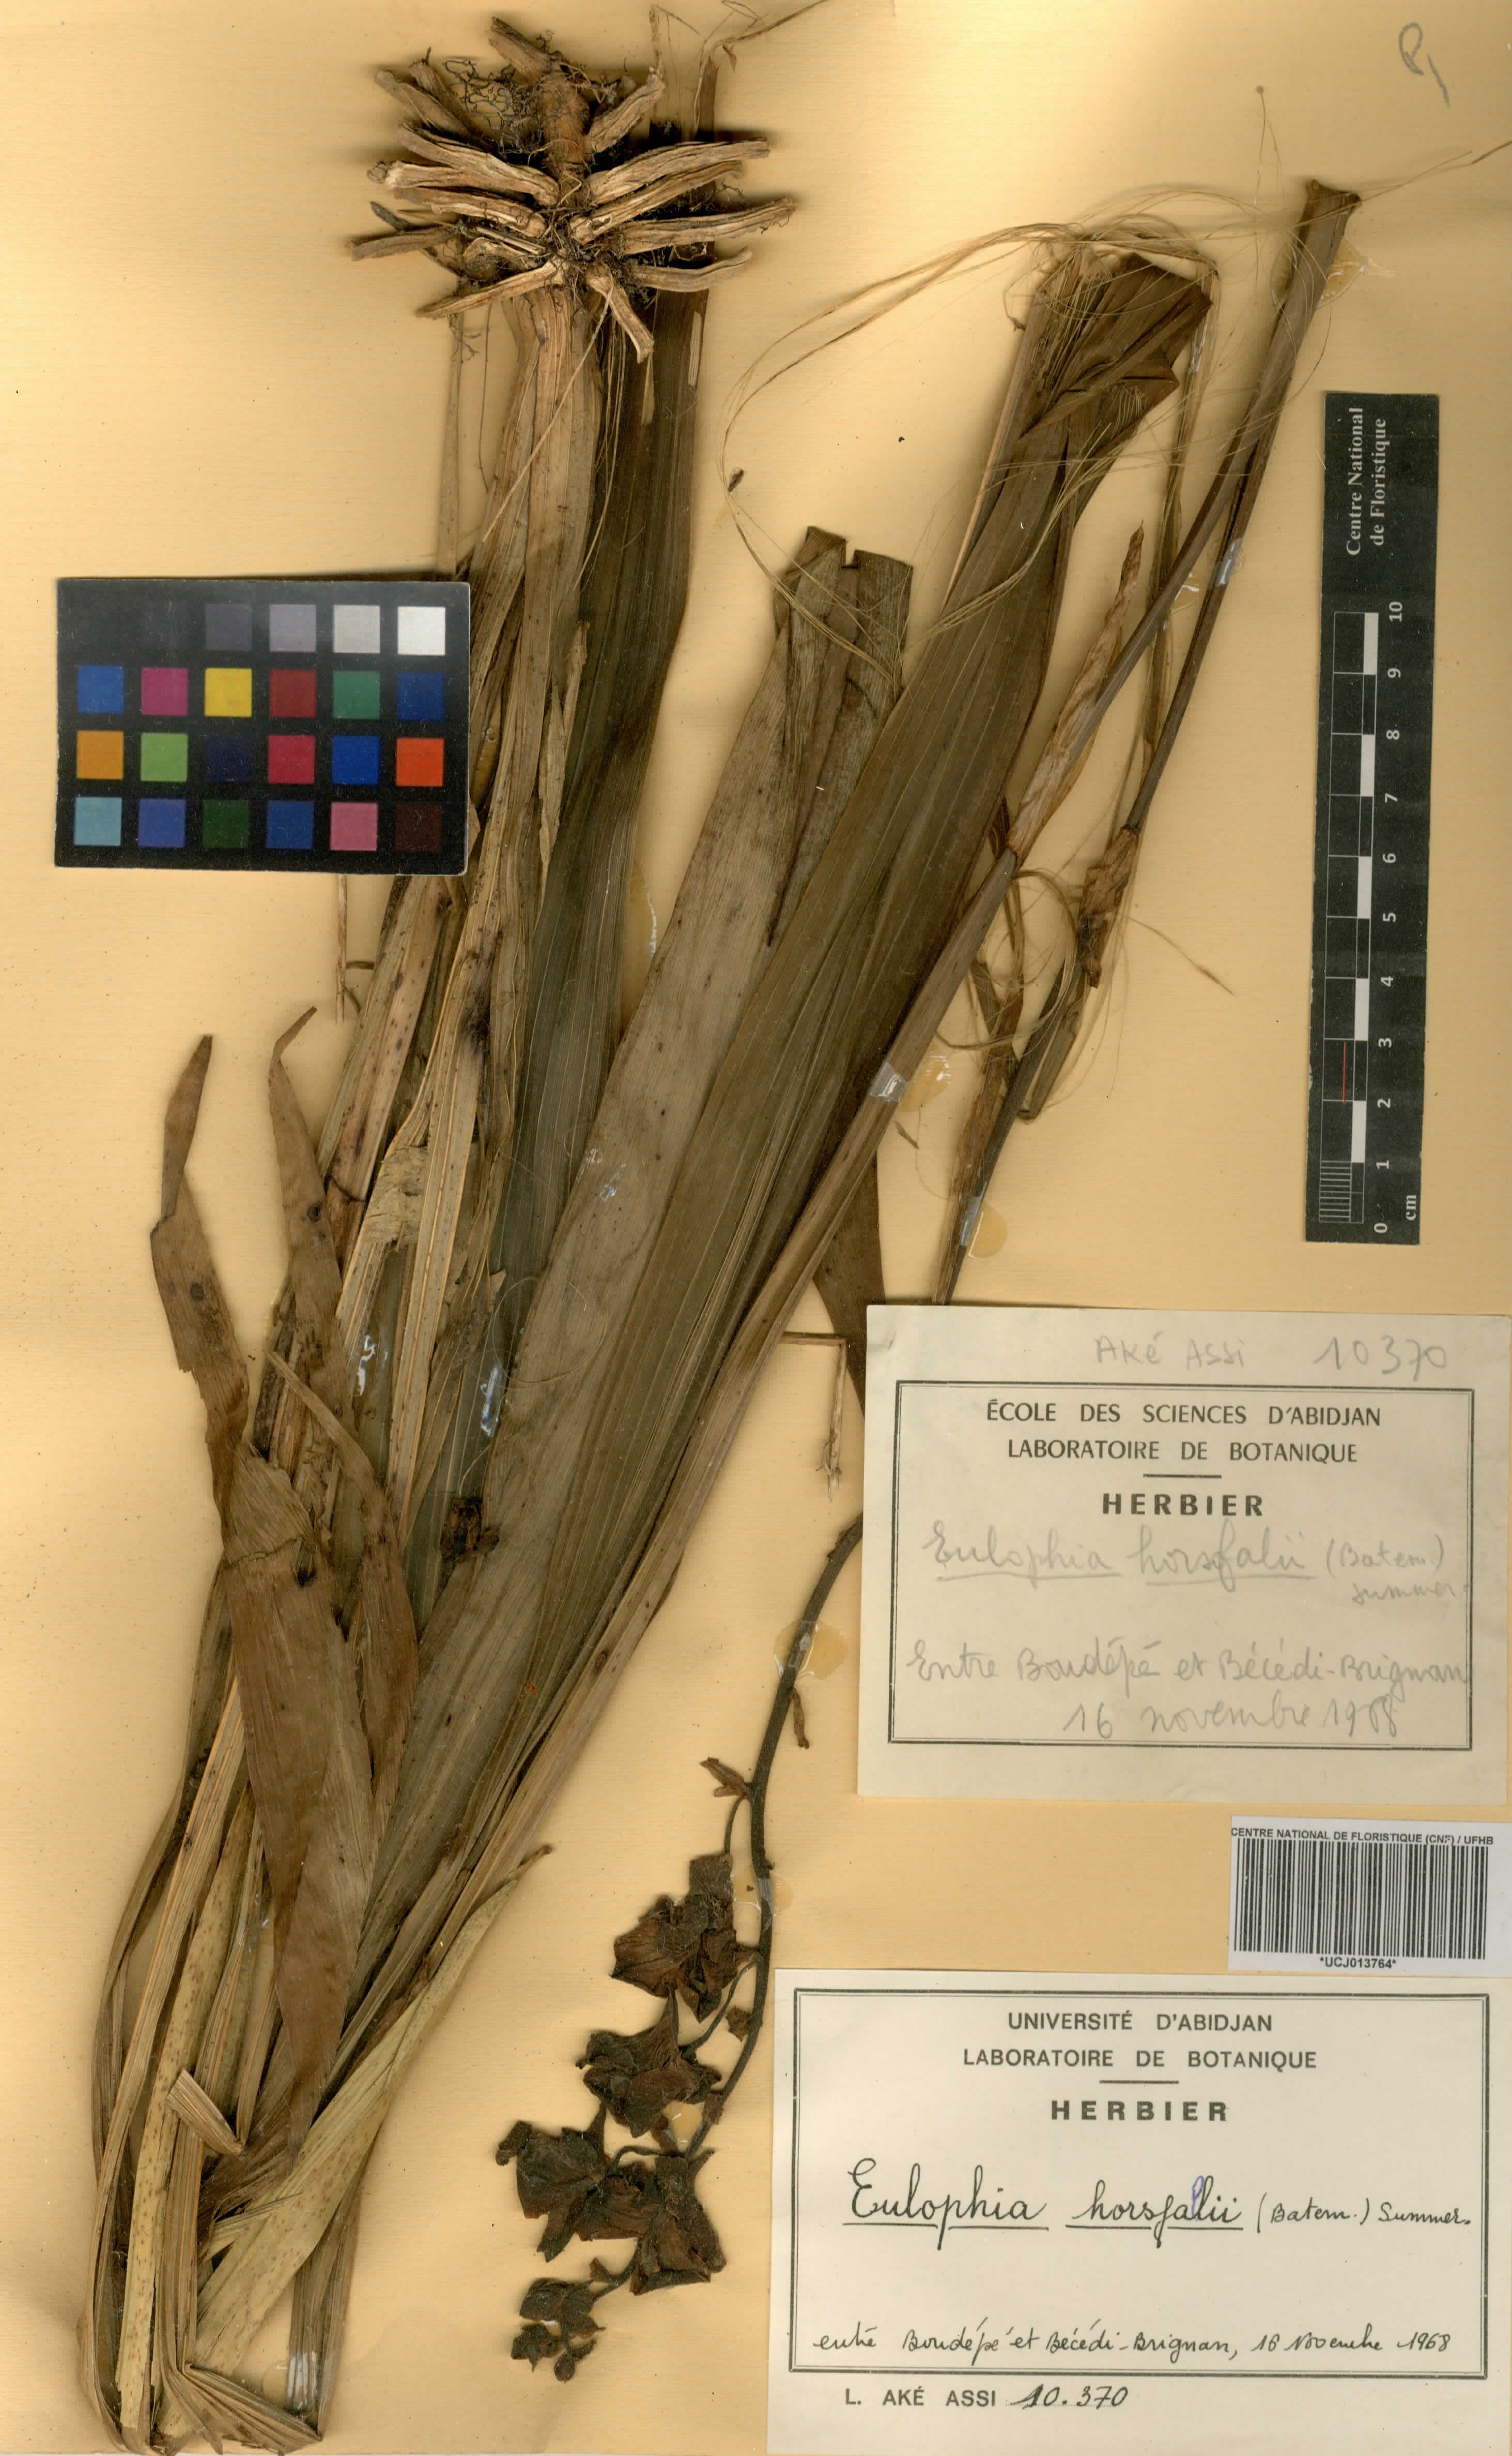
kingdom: Plantae
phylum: Tracheophyta
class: Liliopsida
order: Asparagales
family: Orchidaceae
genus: Eulophia
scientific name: Eulophia horsfallii
